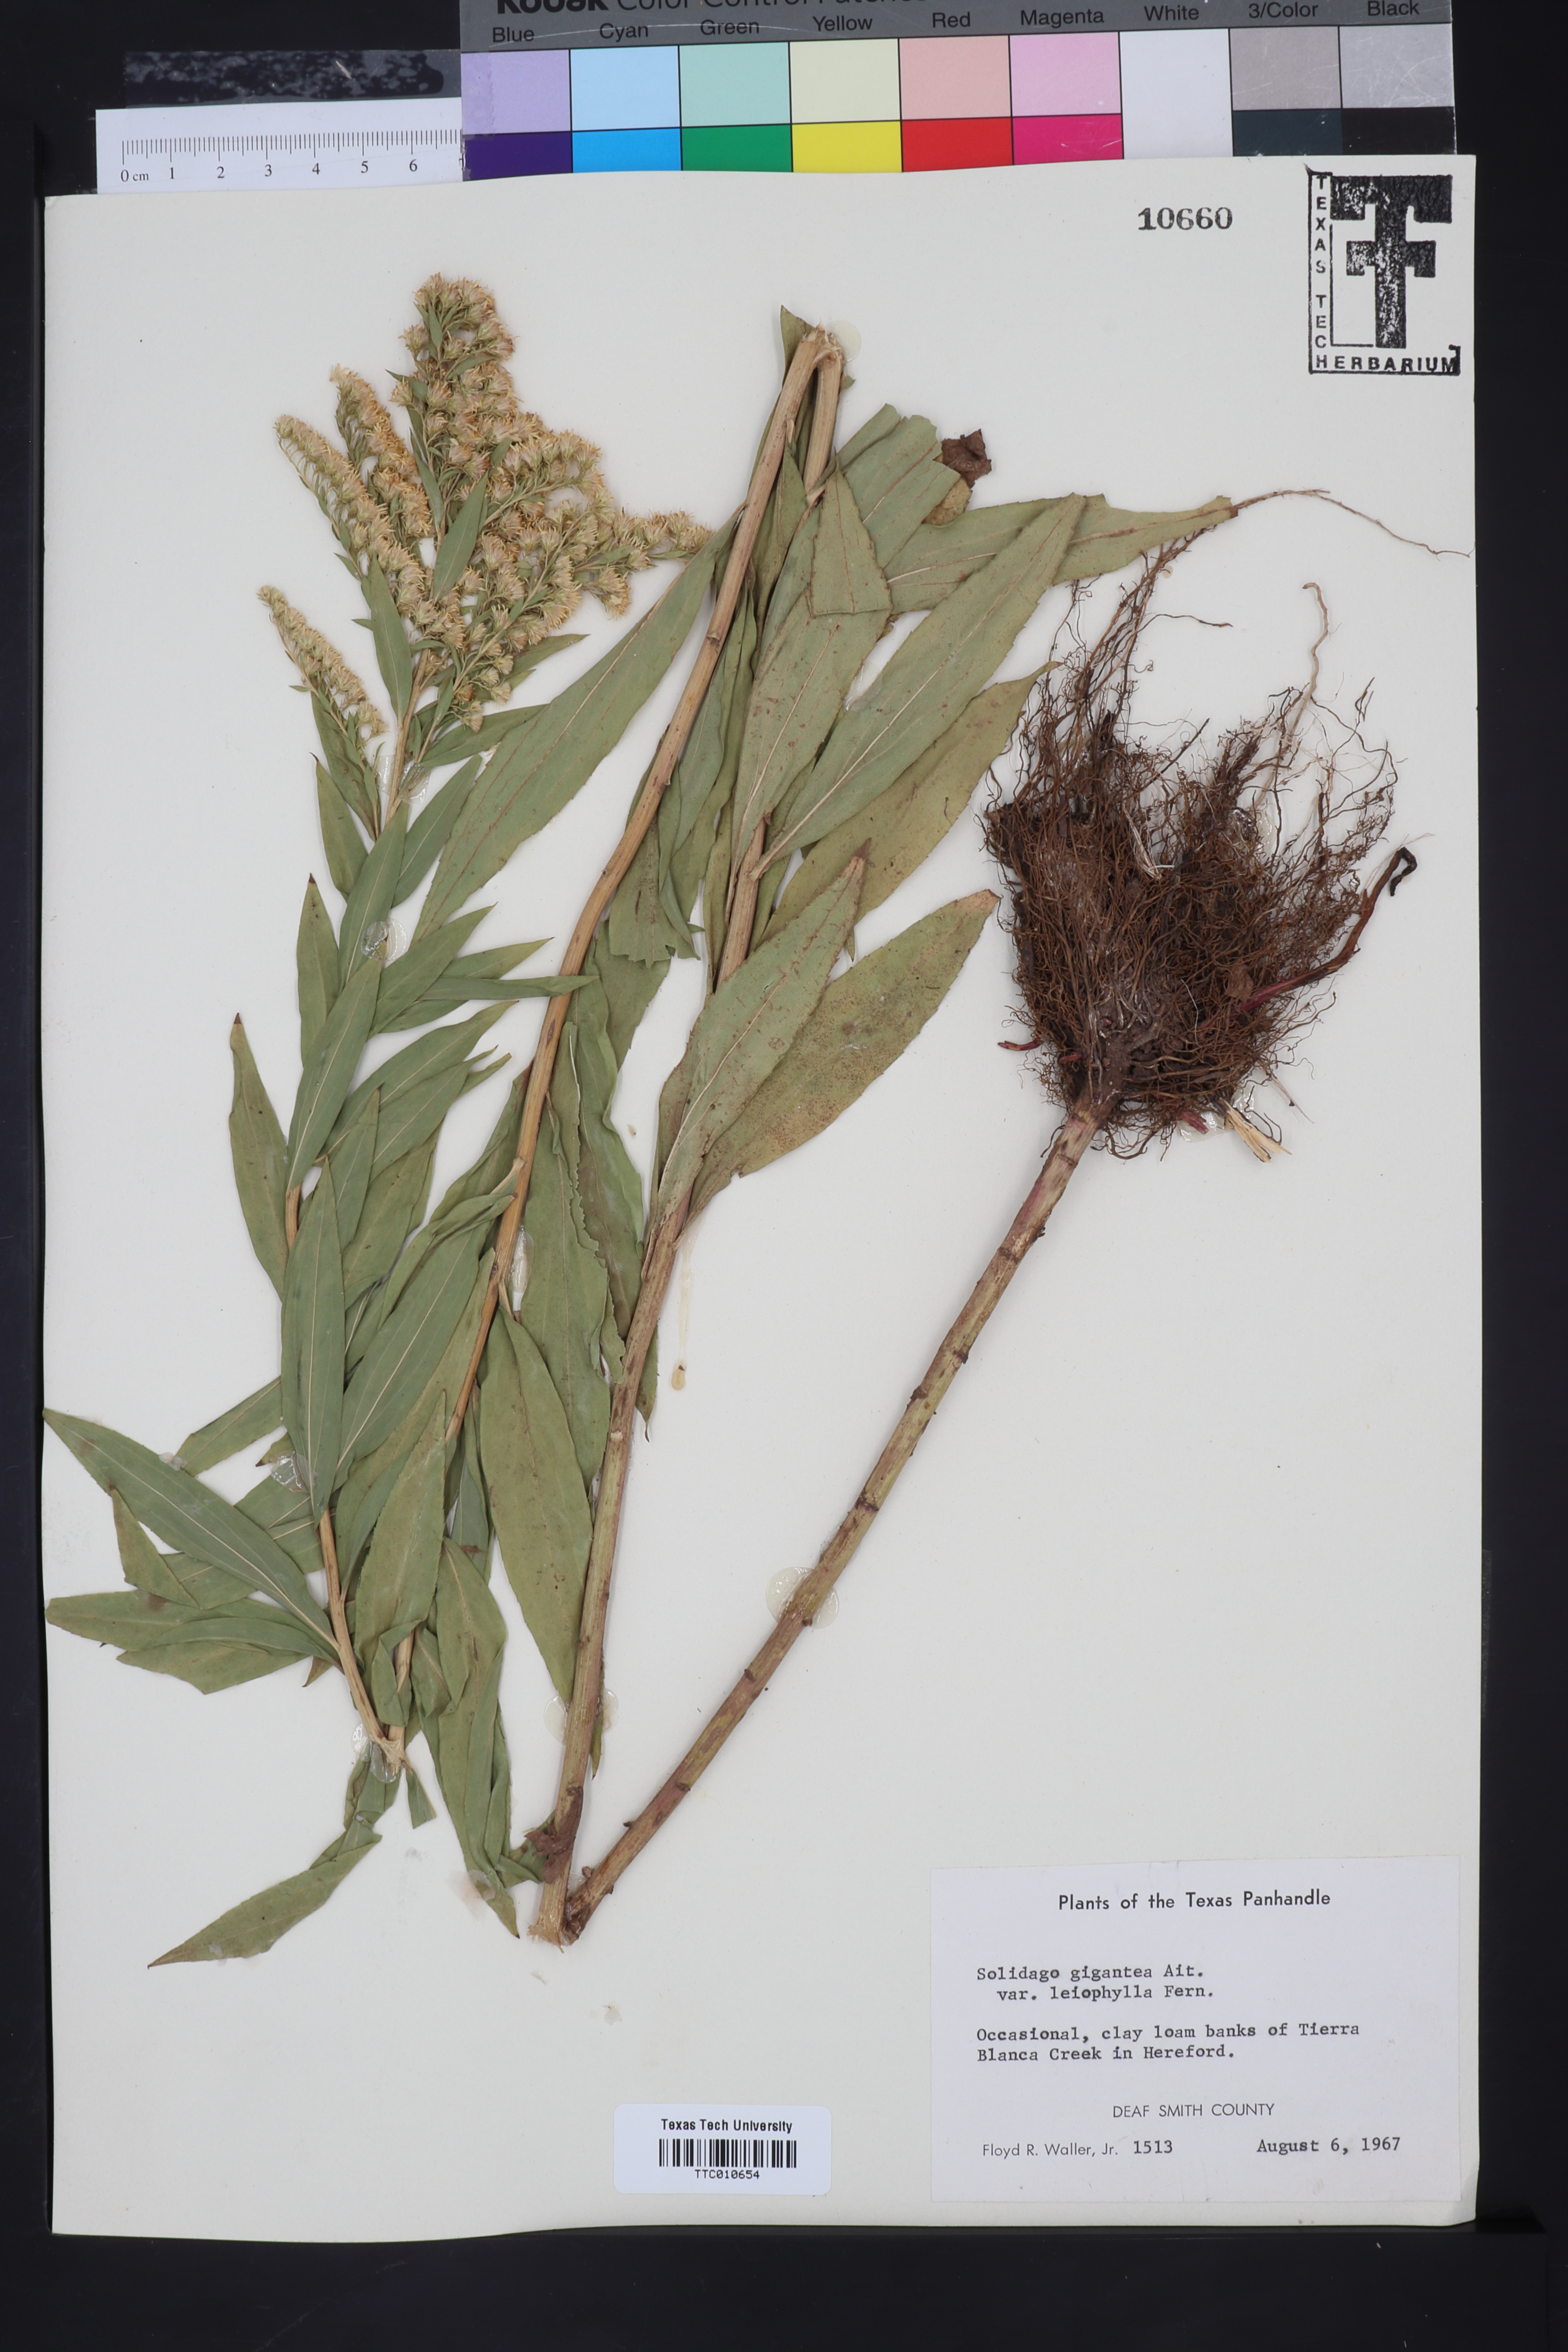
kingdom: Plantae
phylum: Tracheophyta
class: Magnoliopsida
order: Asterales
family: Asteraceae
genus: Solidago
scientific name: Solidago gigantea
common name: Giant goldenrod
